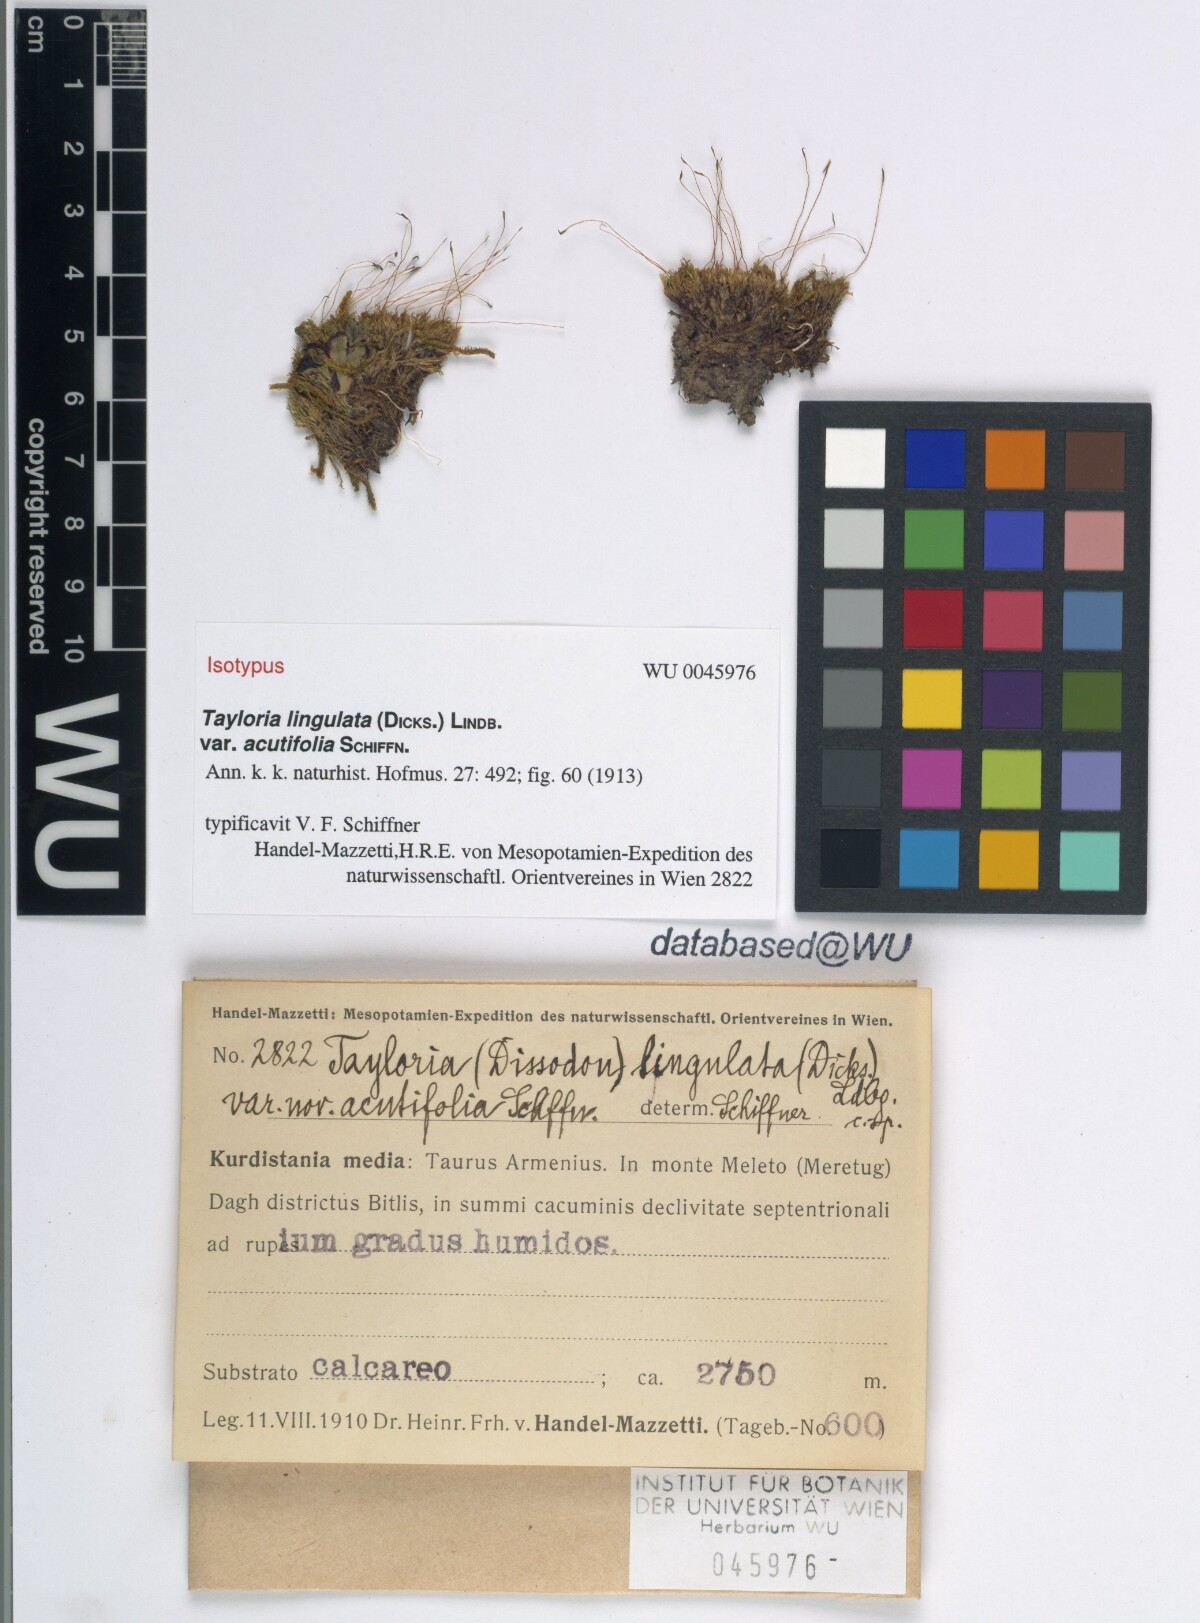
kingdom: Plantae
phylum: Bryophyta
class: Bryopsida
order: Splachnales
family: Splachnaceae
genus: Tayloria
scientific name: Tayloria lingulata
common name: Tongue-leaved trumpet moss
